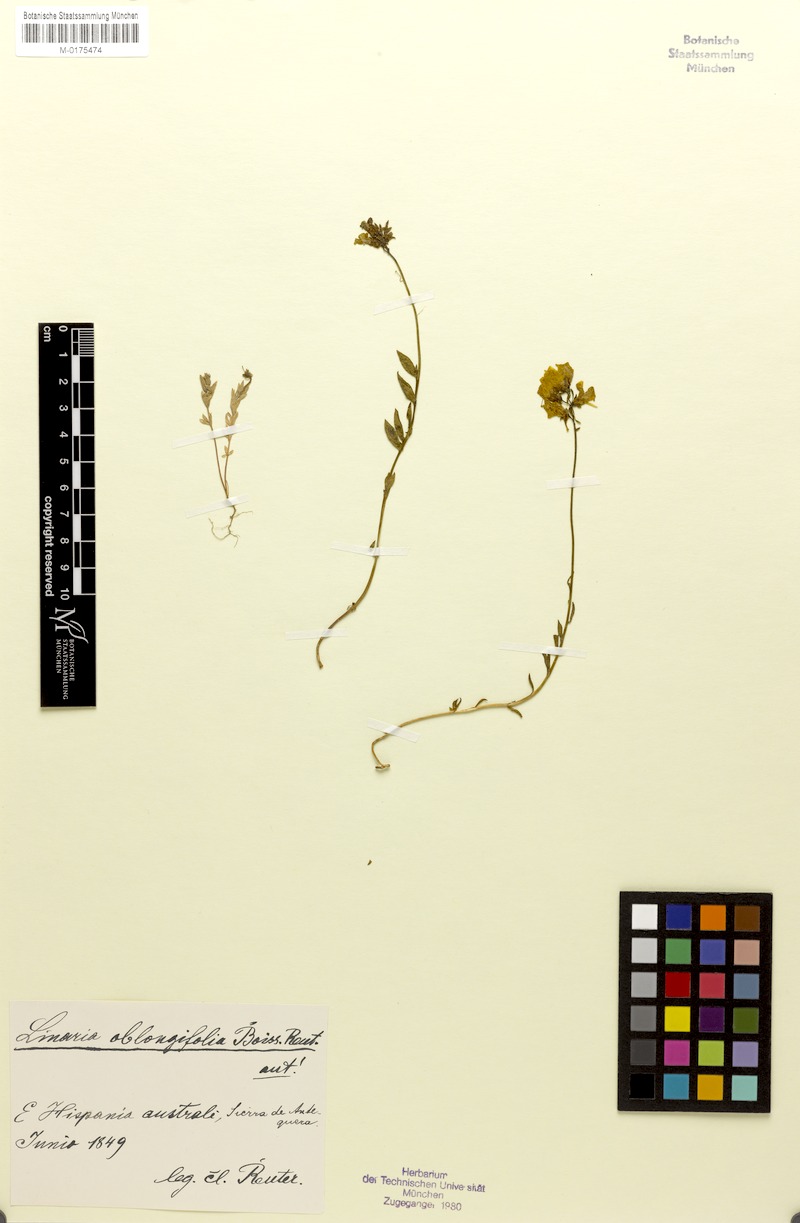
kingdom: Plantae
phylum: Tracheophyta
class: Magnoliopsida
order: Lamiales
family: Plantaginaceae
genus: Linaria
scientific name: Linaria oblongifolia
